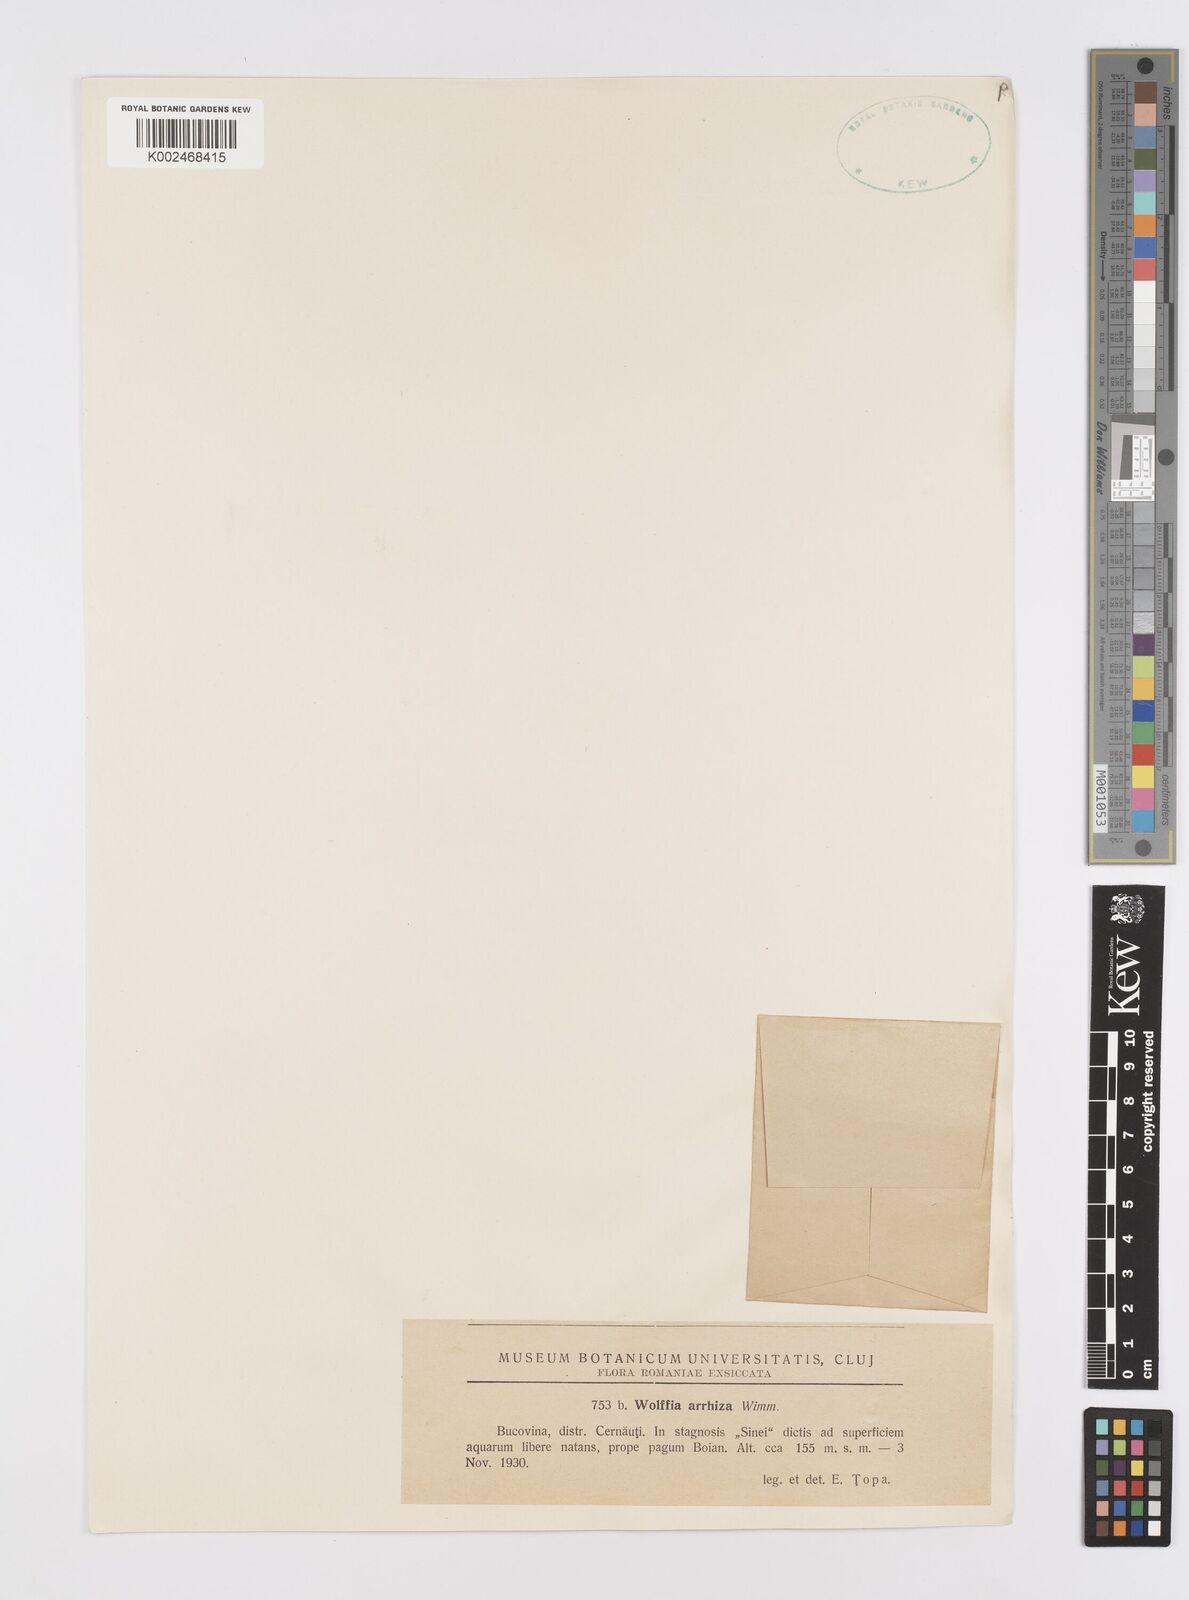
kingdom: Plantae
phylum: Tracheophyta
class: Liliopsida
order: Alismatales
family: Araceae
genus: Wolffia
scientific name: Wolffia arrhiza
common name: Rootless duckweed
